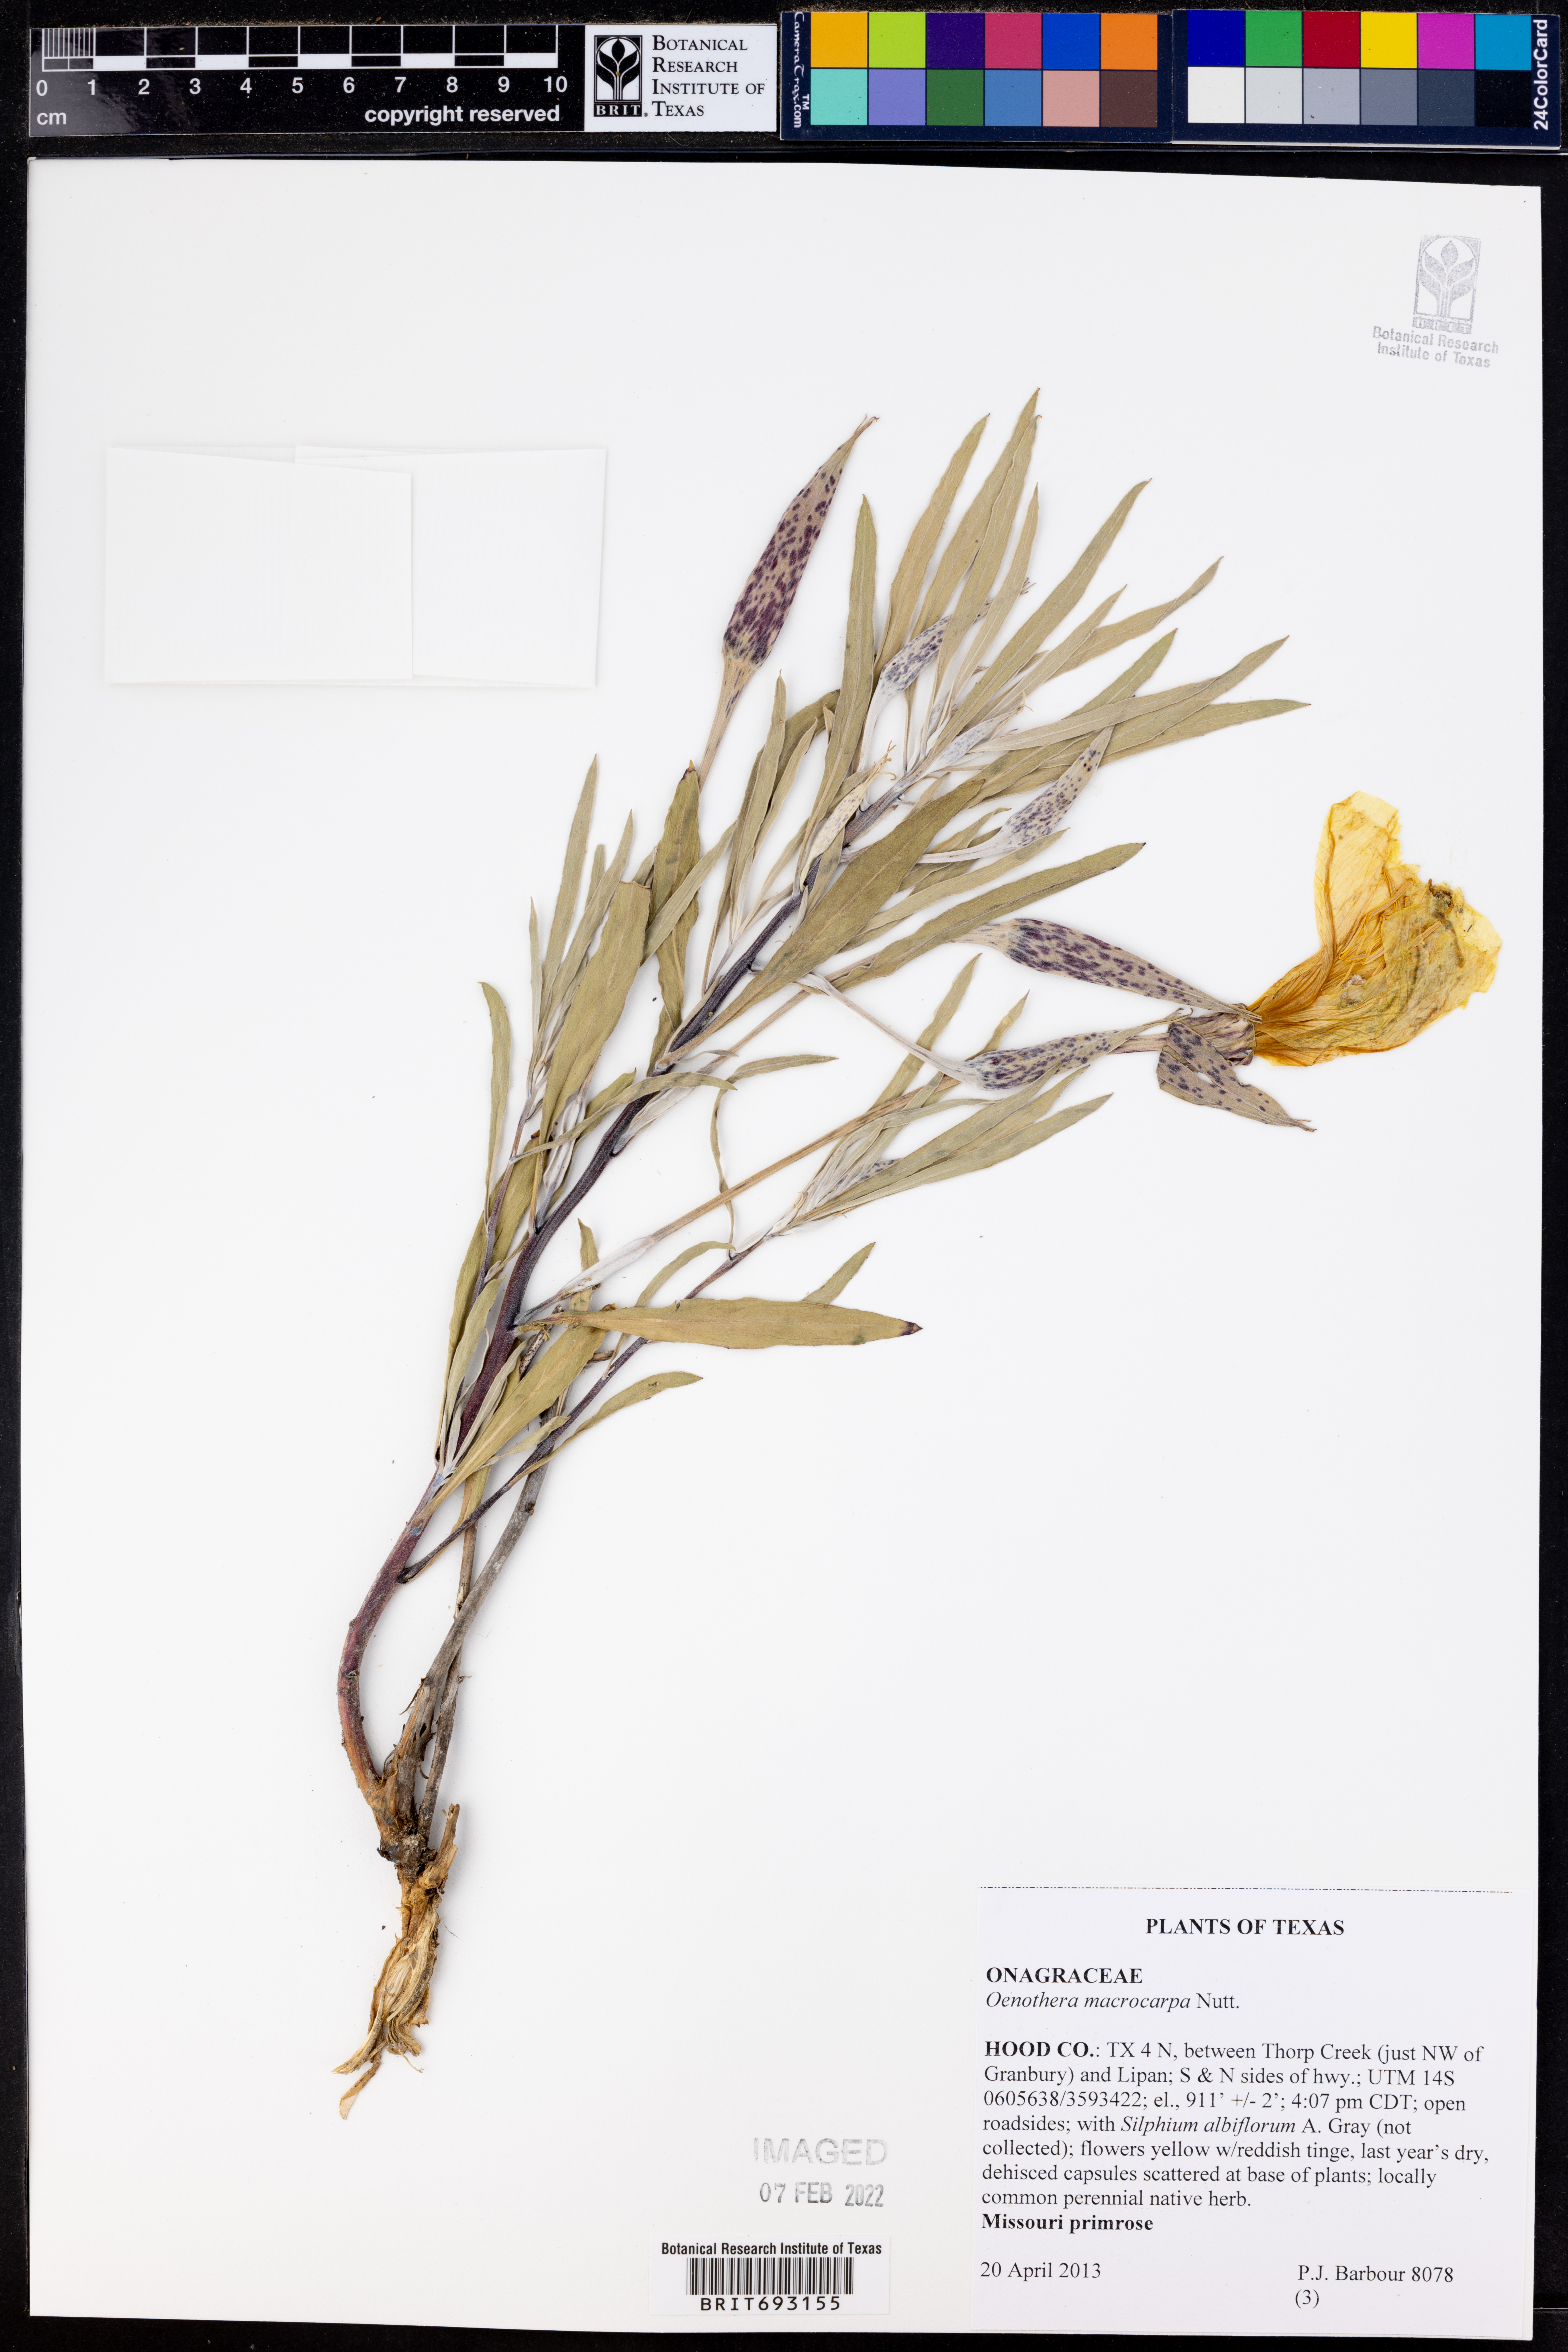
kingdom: Plantae
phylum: Tracheophyta
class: Magnoliopsida
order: Myrtales
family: Onagraceae
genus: Oenothera
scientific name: Oenothera macrocarpa
